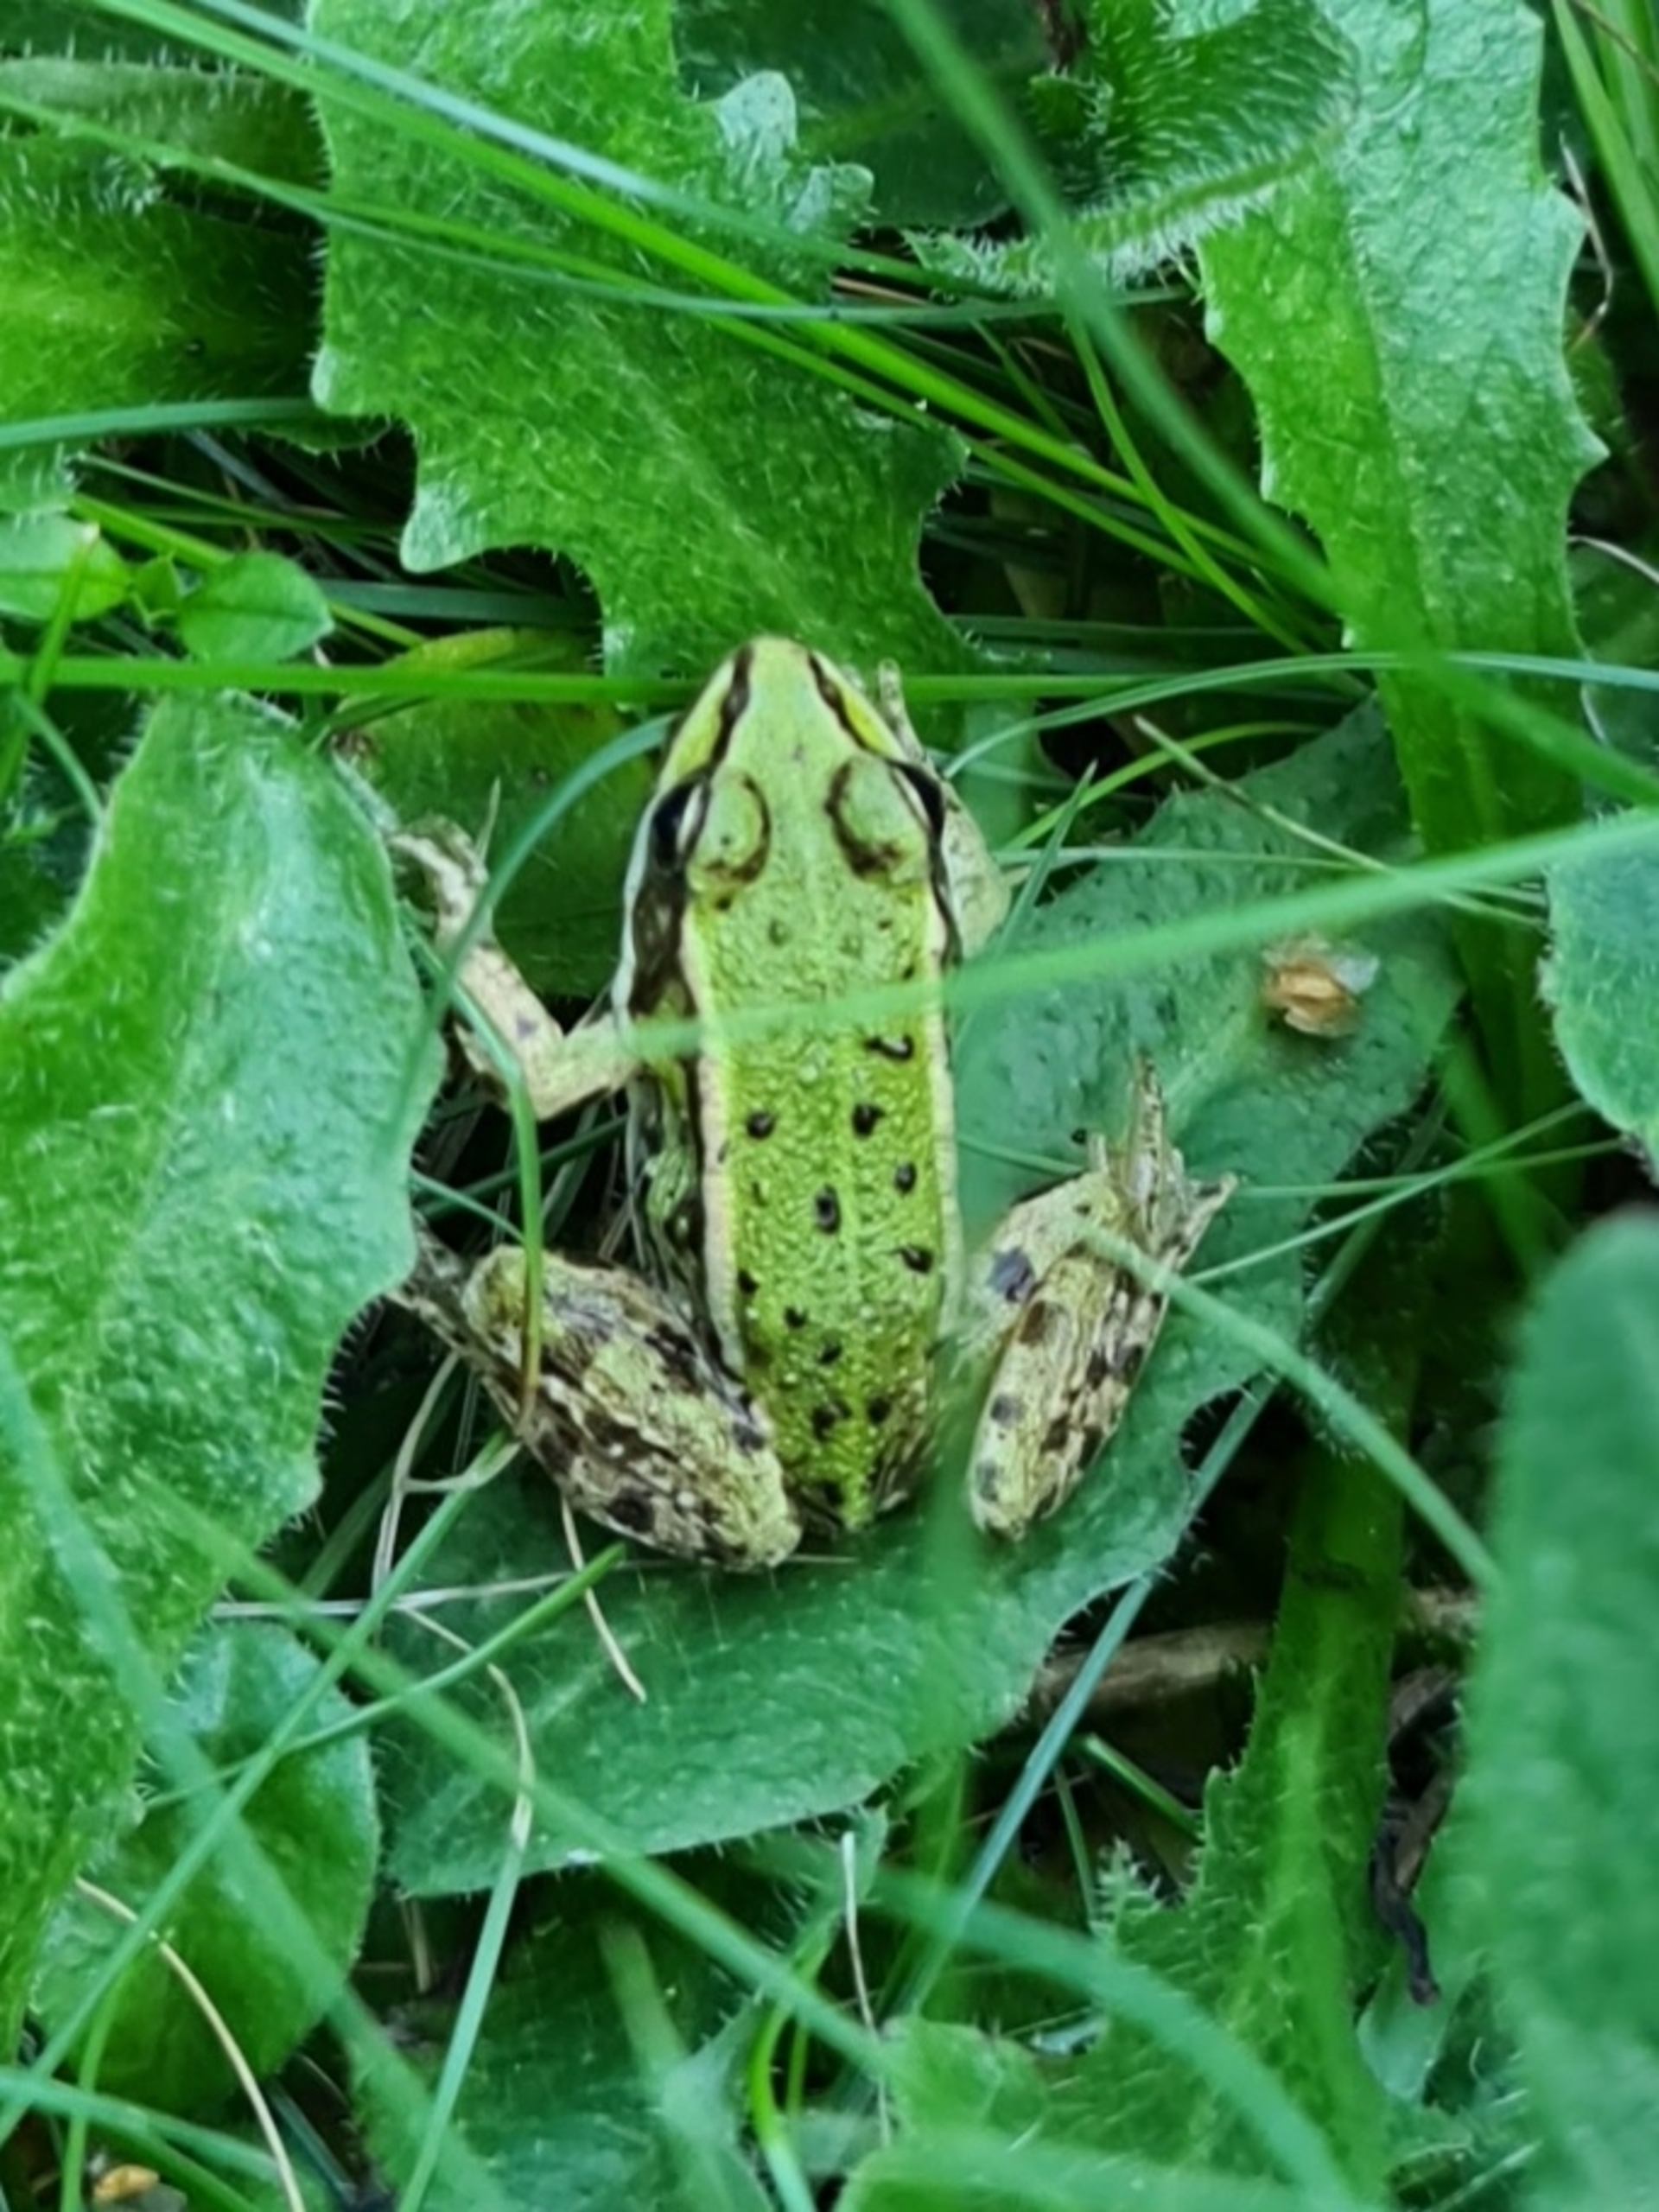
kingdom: Animalia
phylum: Chordata
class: Amphibia
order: Anura
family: Ranidae
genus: Pelophylax
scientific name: Pelophylax lessonae
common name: Grøn frø
